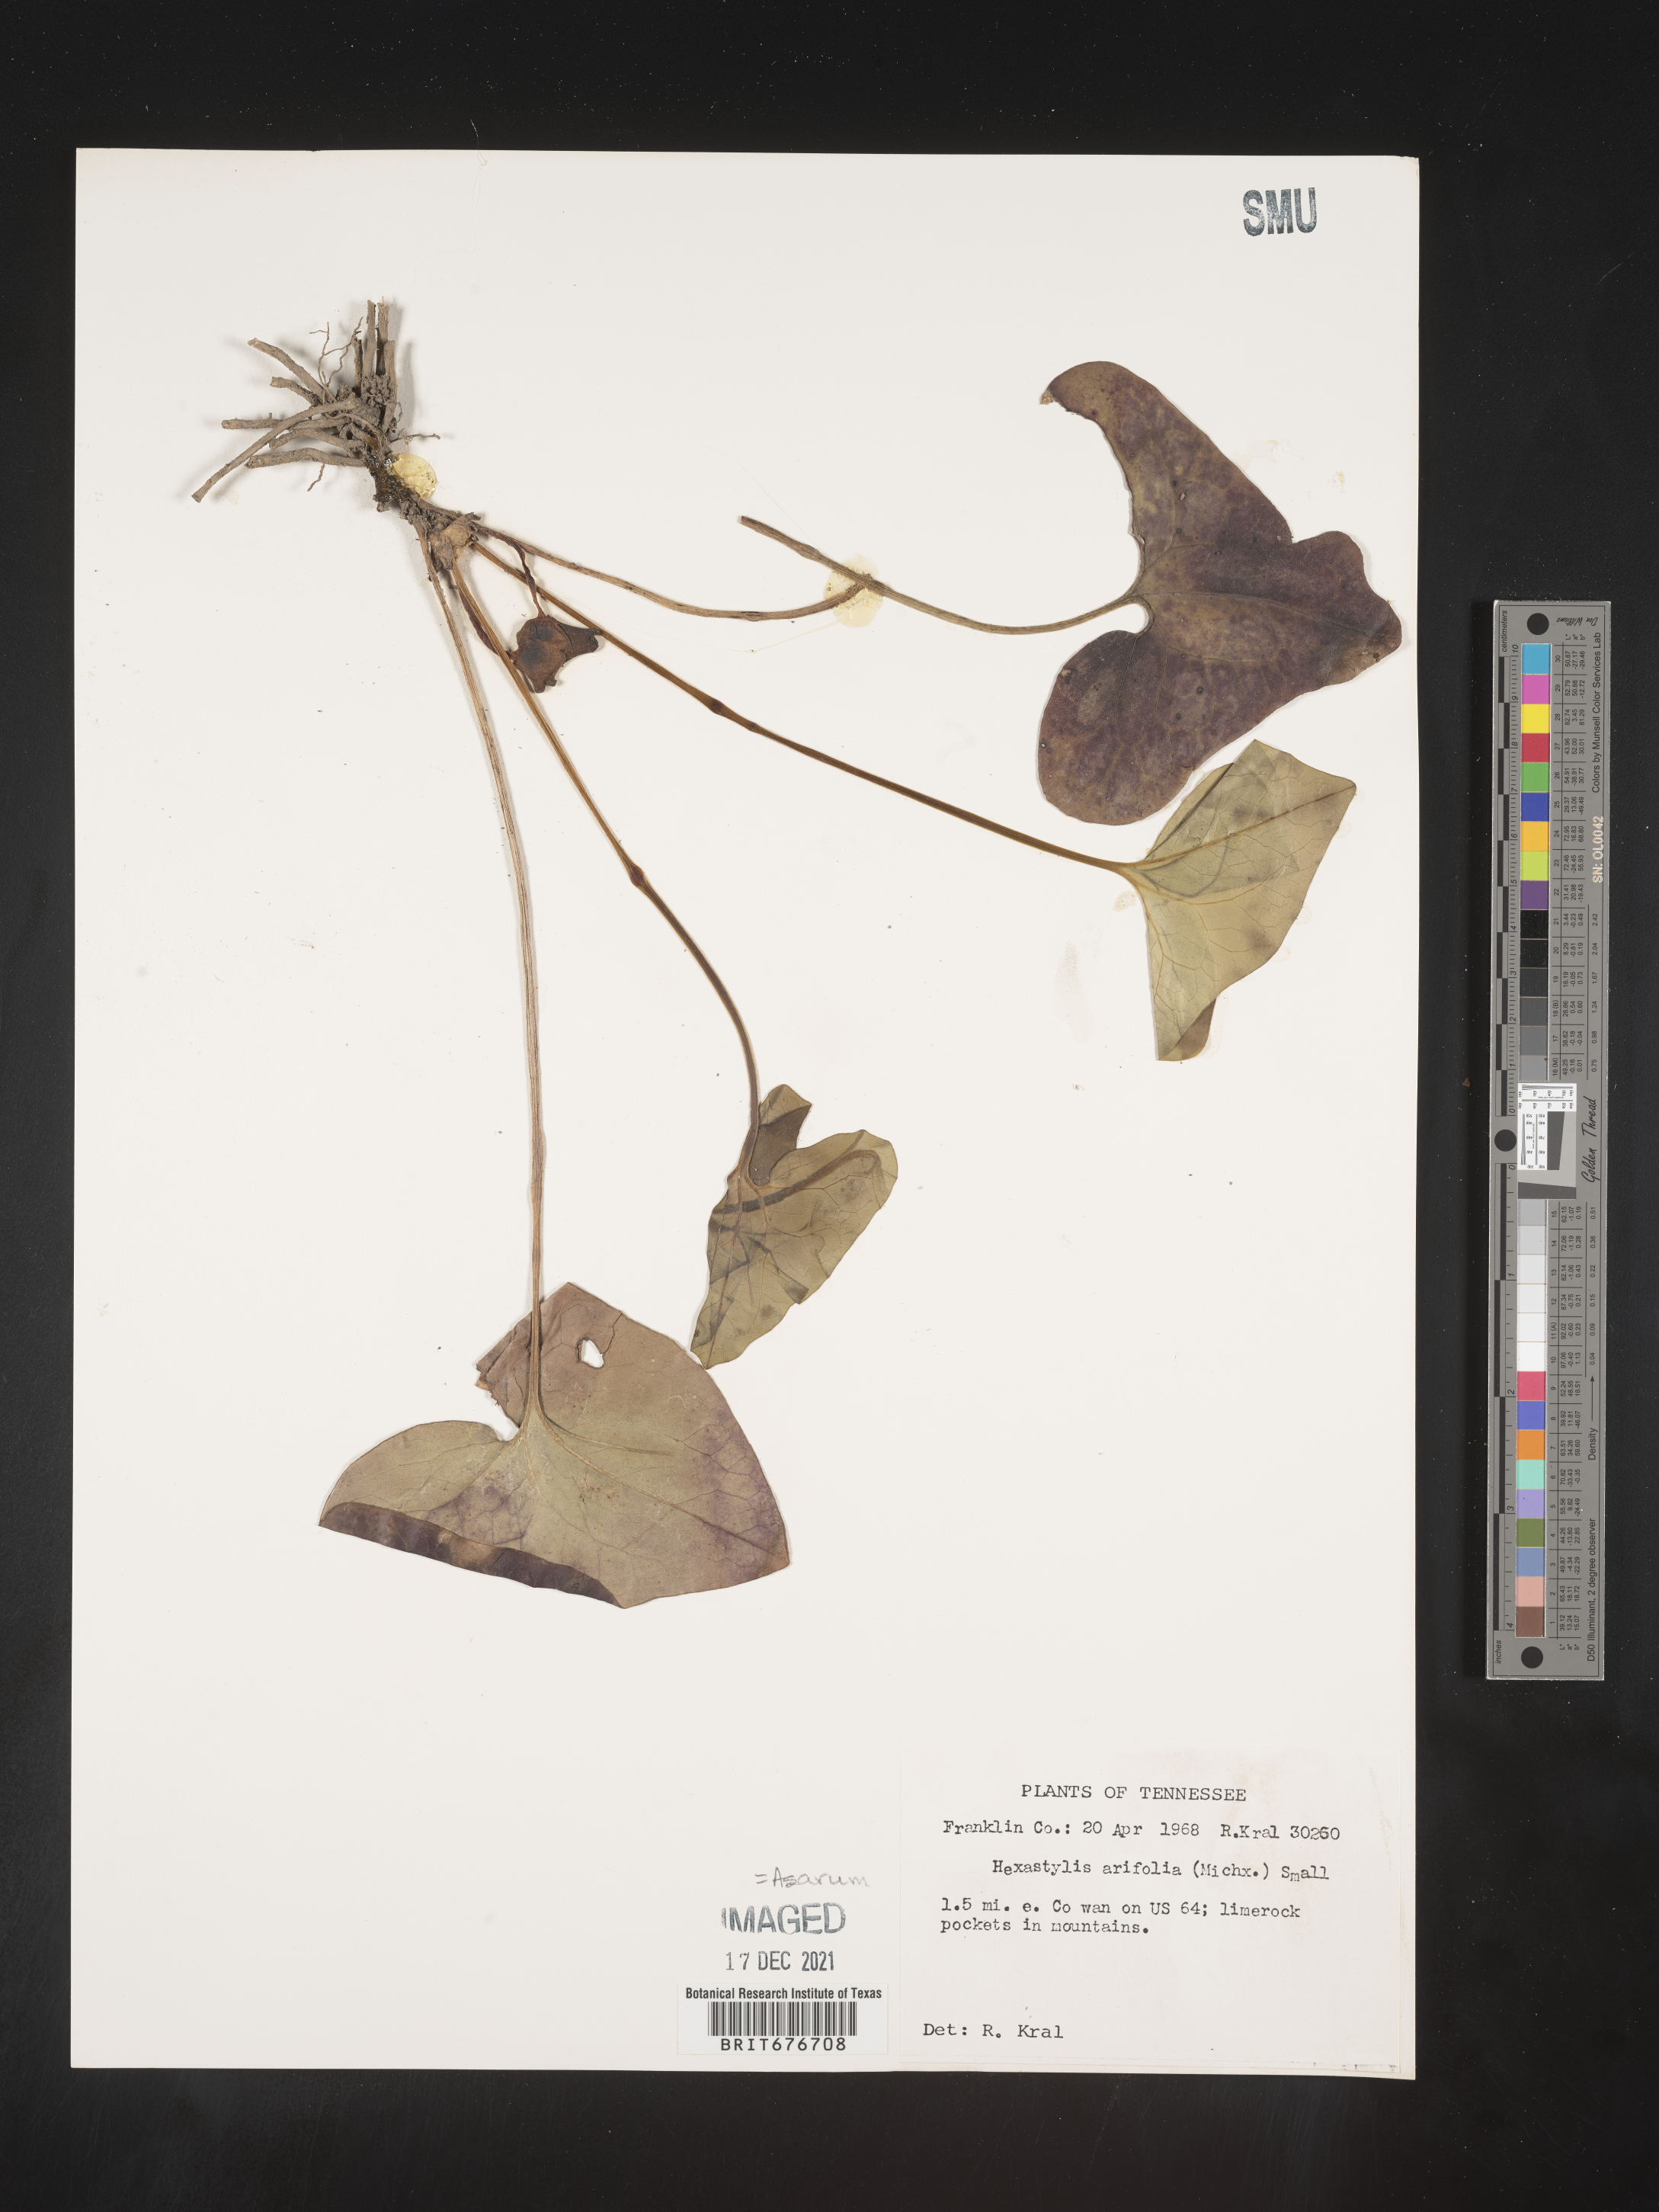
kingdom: Plantae
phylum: Tracheophyta
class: Magnoliopsida
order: Piperales
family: Aristolochiaceae
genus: Hexastylis
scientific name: Hexastylis arifolia
